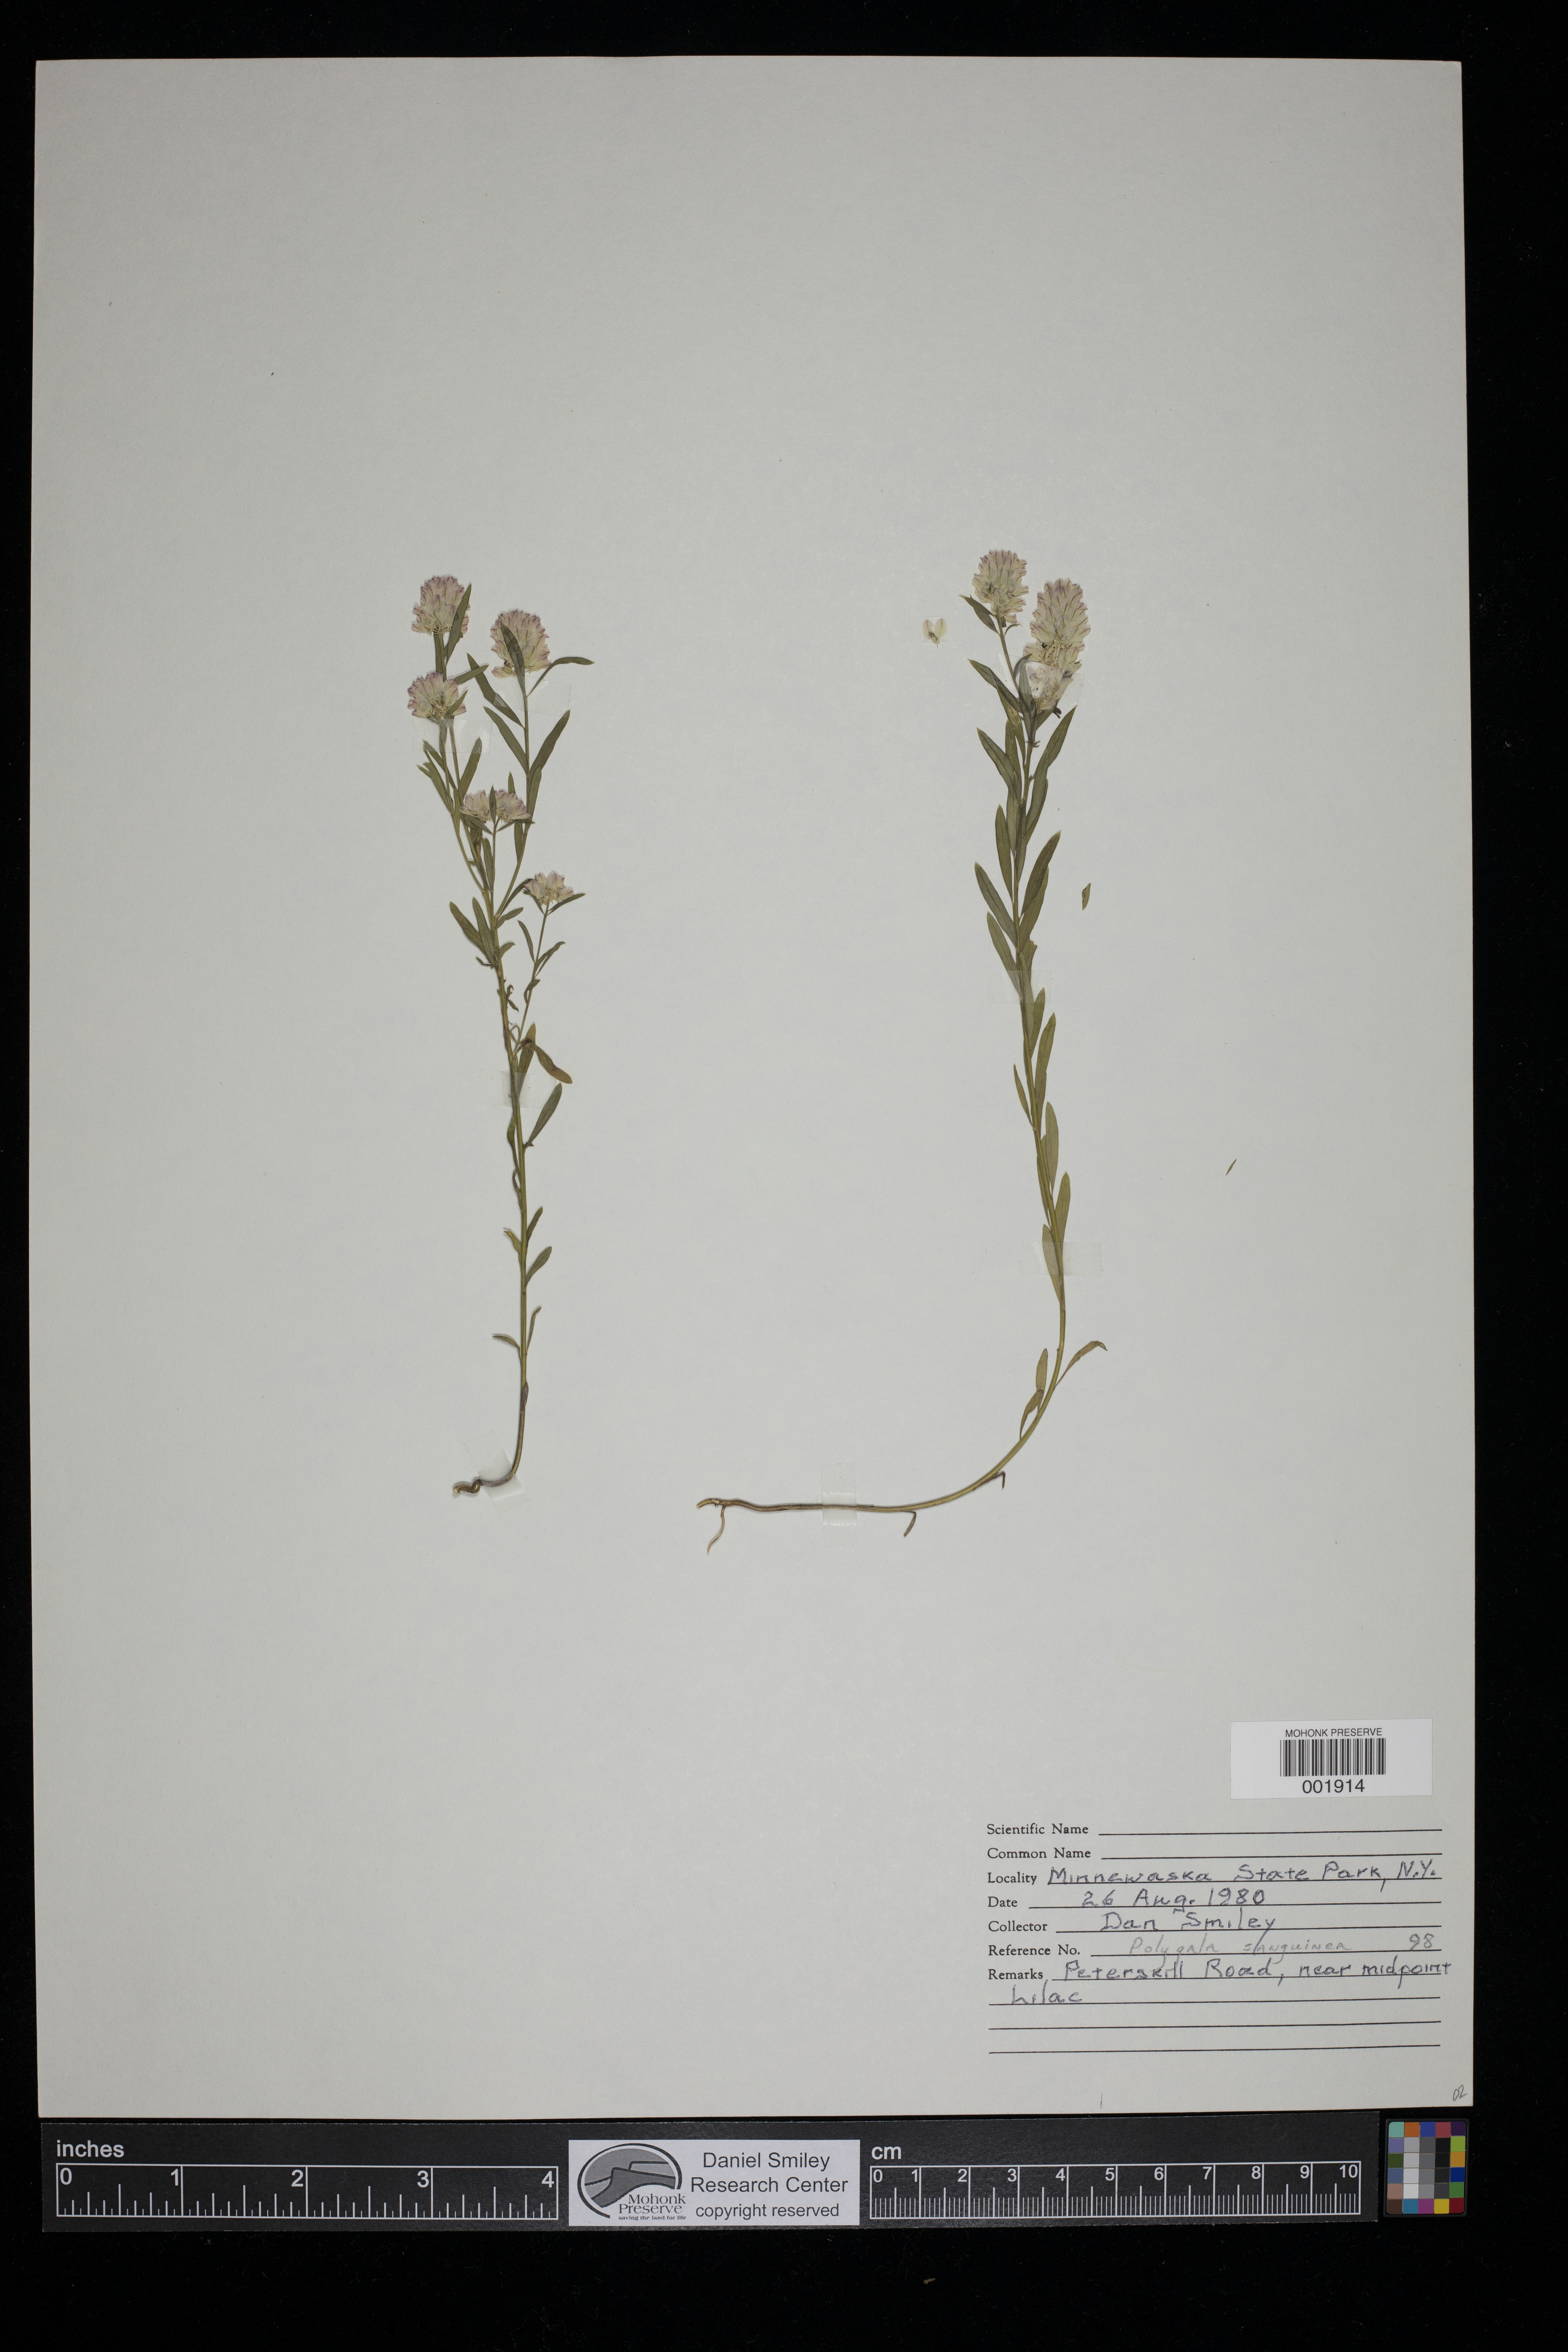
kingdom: Plantae
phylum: Tracheophyta
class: Magnoliopsida
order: Fabales
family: Polygalaceae
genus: Polygala
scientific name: Polygala sanguinea
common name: Blood milkwort
